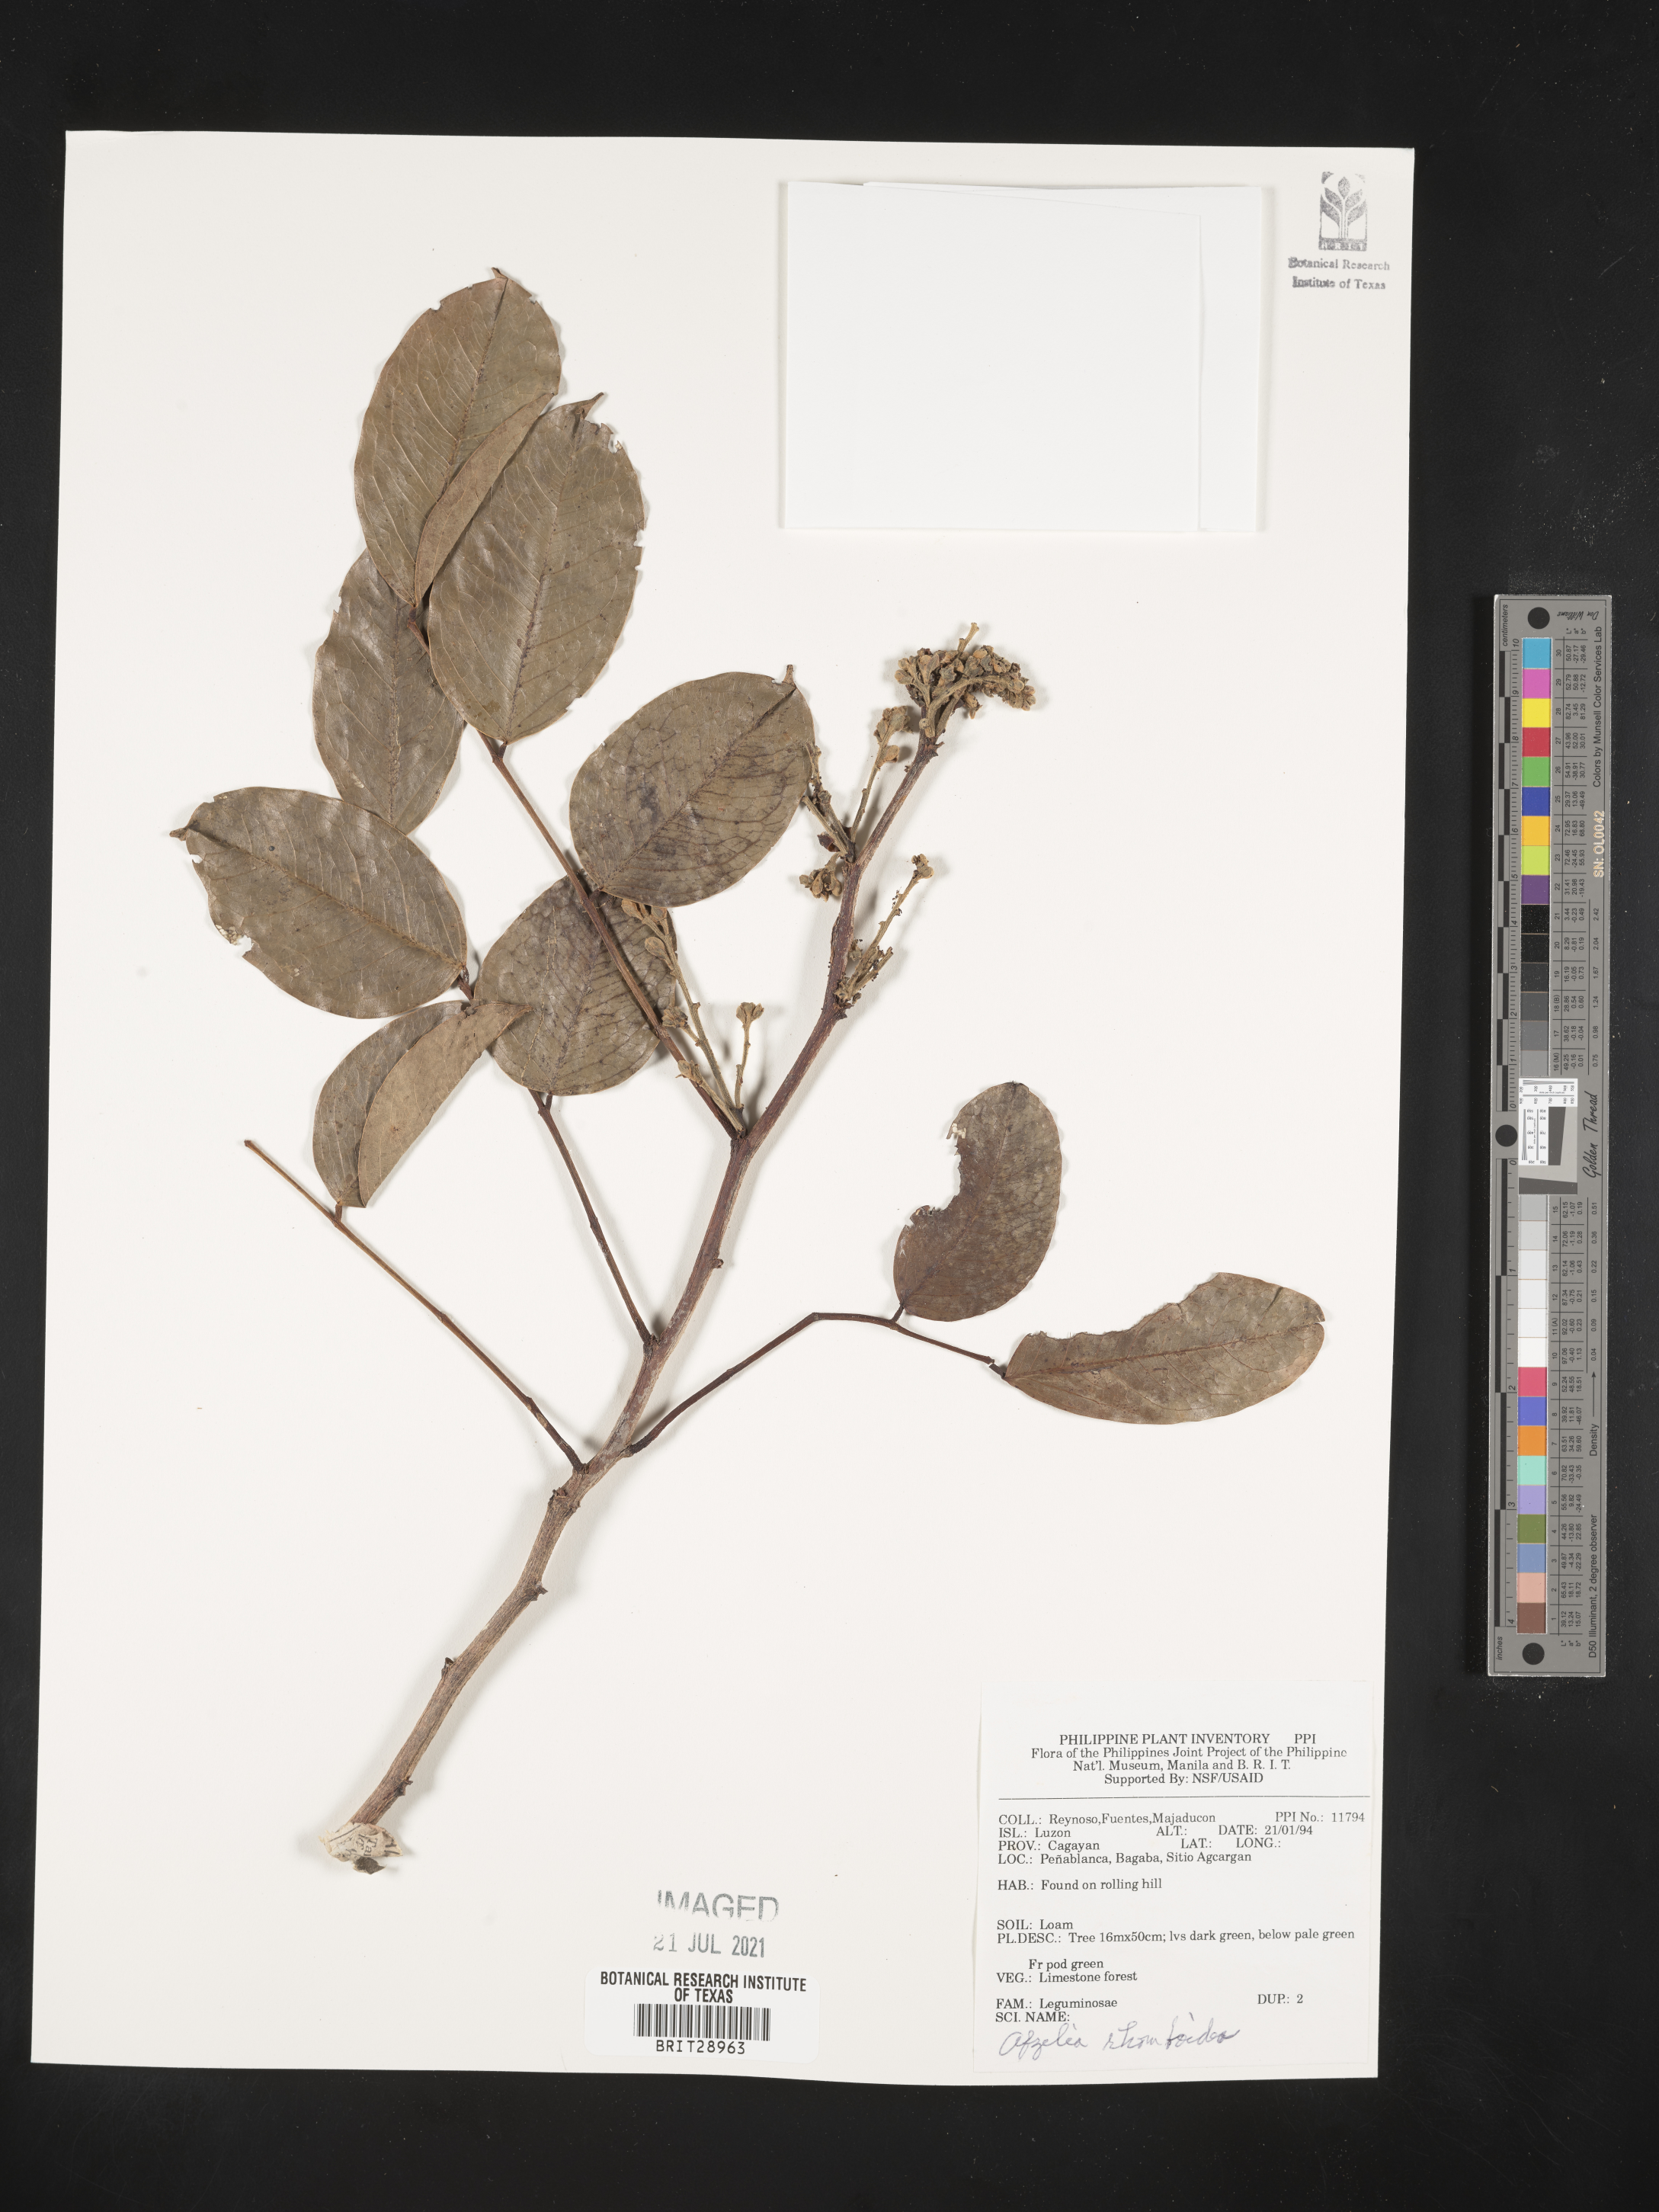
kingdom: Plantae
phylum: Tracheophyta
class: Magnoliopsida
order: Fabales
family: Fabaceae
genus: Afzelia
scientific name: Afzelia rhomboidea
